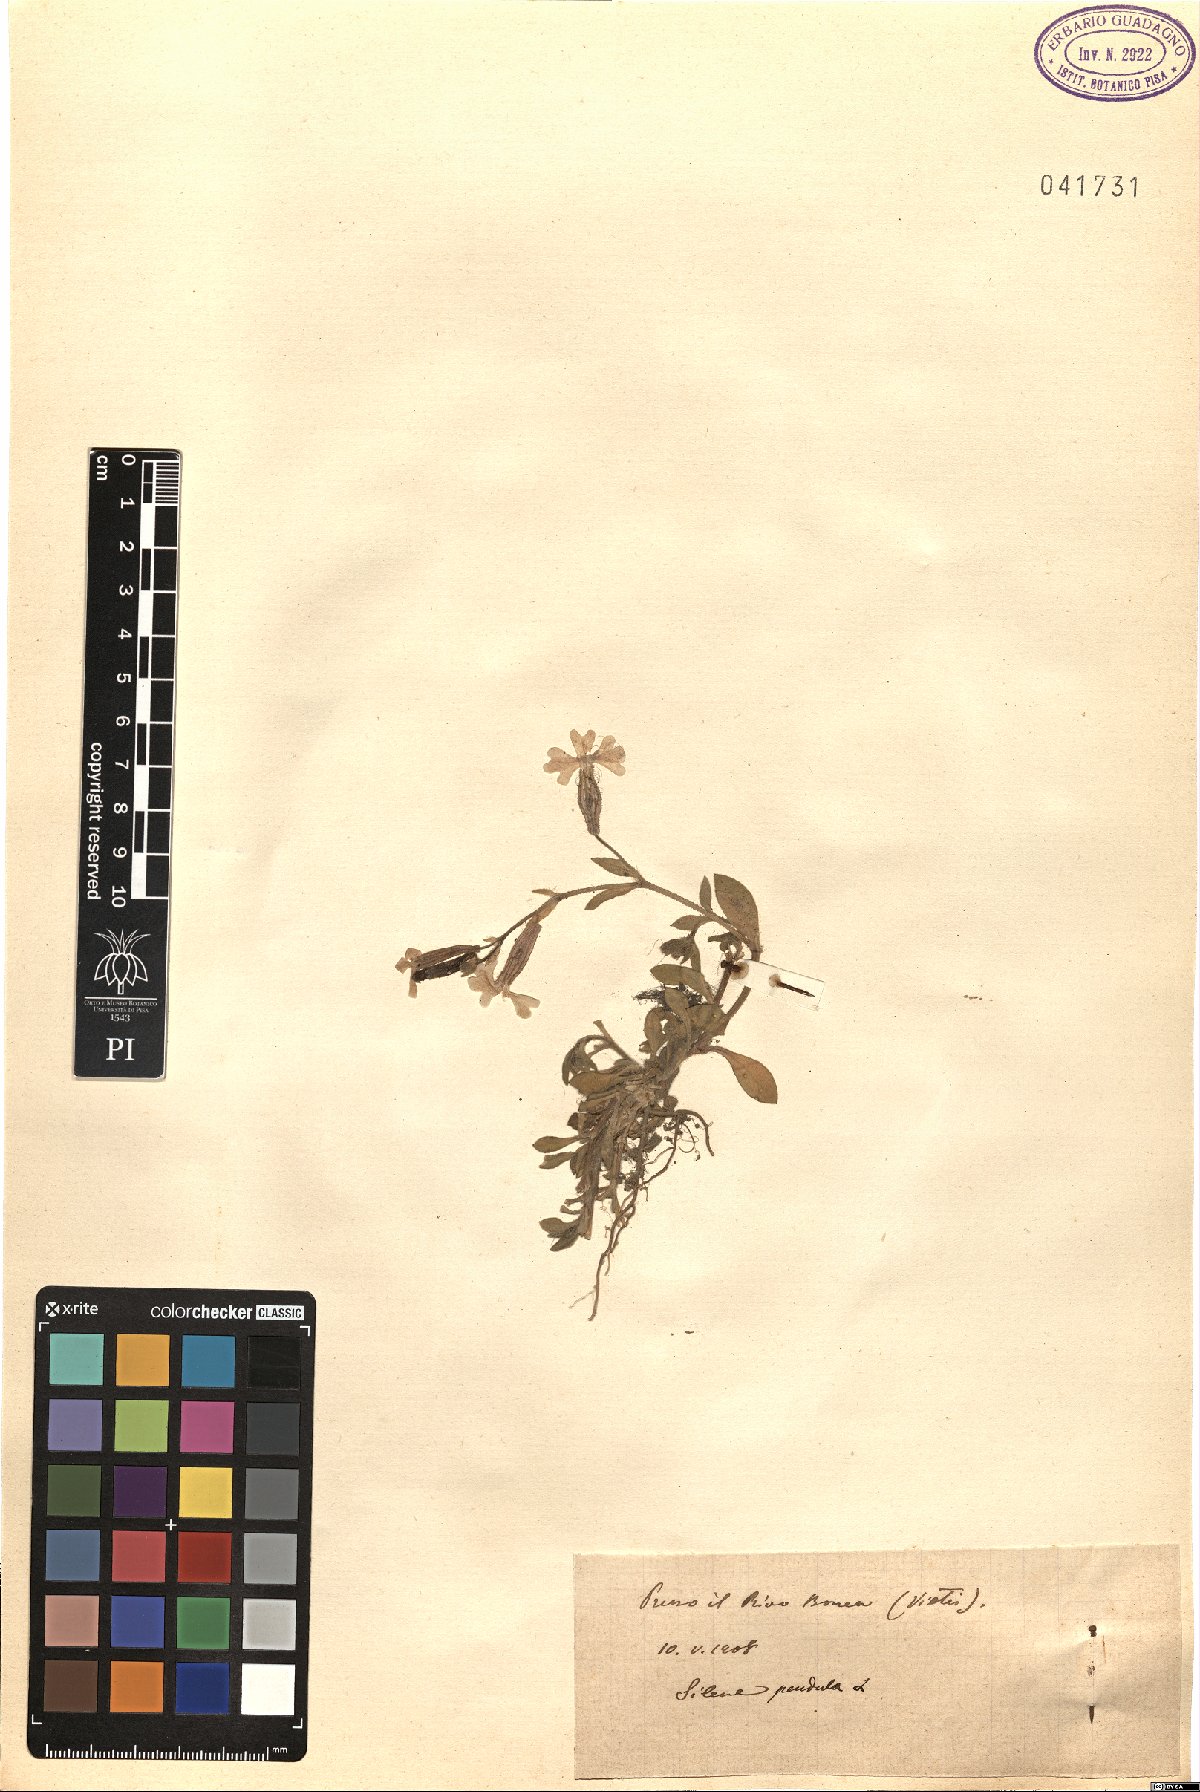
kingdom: Plantae
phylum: Tracheophyta
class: Magnoliopsida
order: Caryophyllales
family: Caryophyllaceae
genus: Silene
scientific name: Silene pendula
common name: Nodding catchfly
